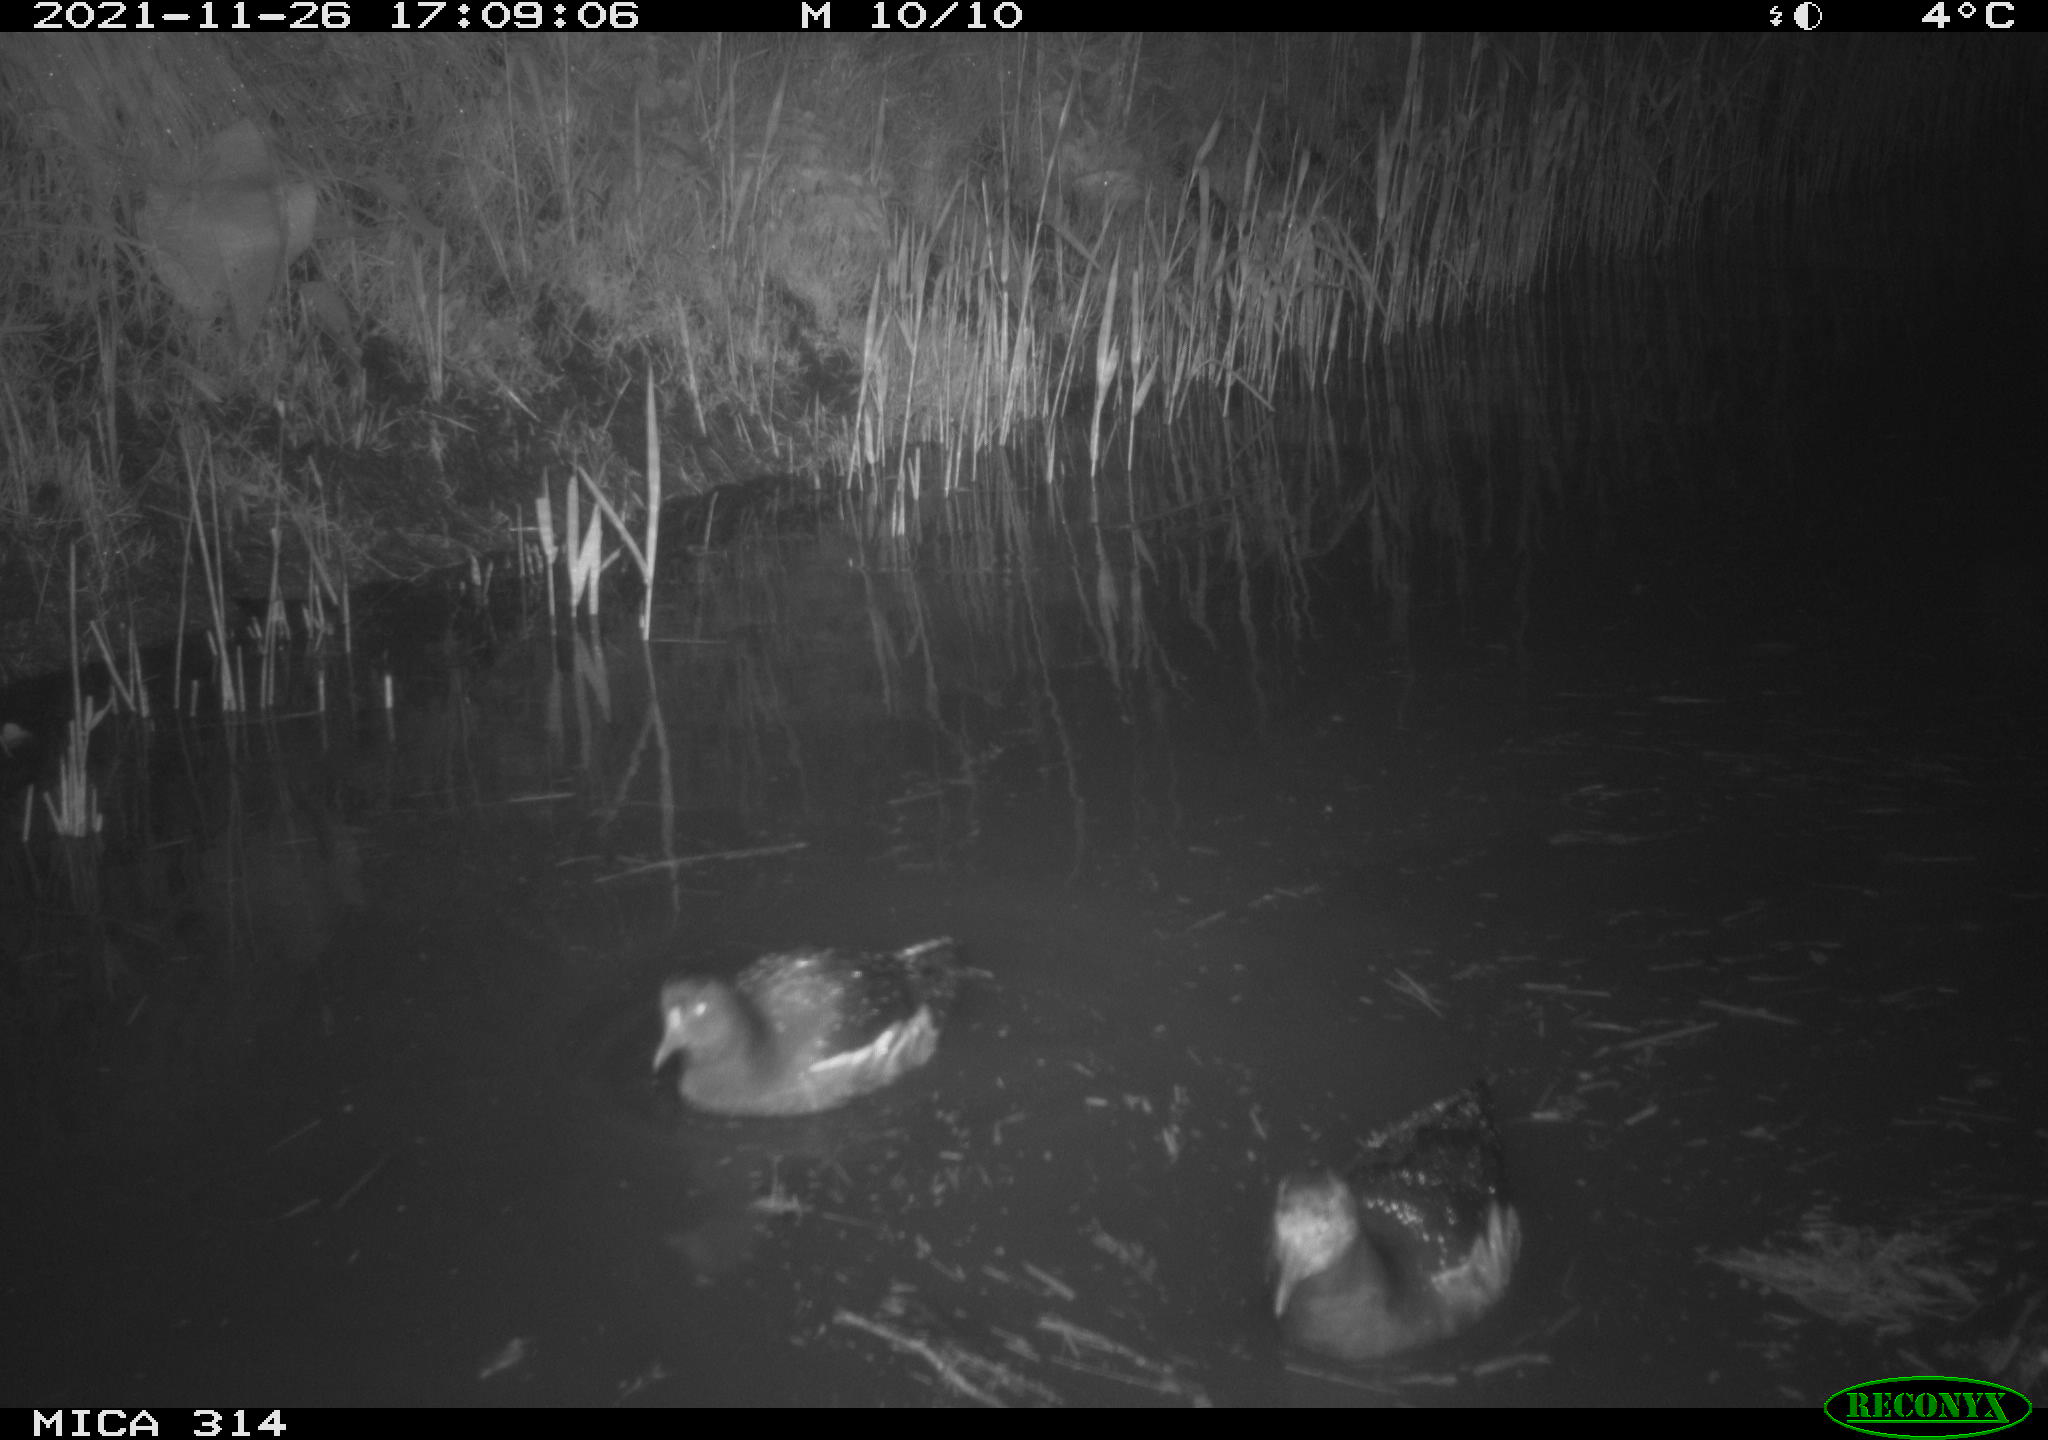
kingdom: Animalia
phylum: Chordata
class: Aves
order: Gruiformes
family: Rallidae
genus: Gallinula
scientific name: Gallinula chloropus
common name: Common moorhen
